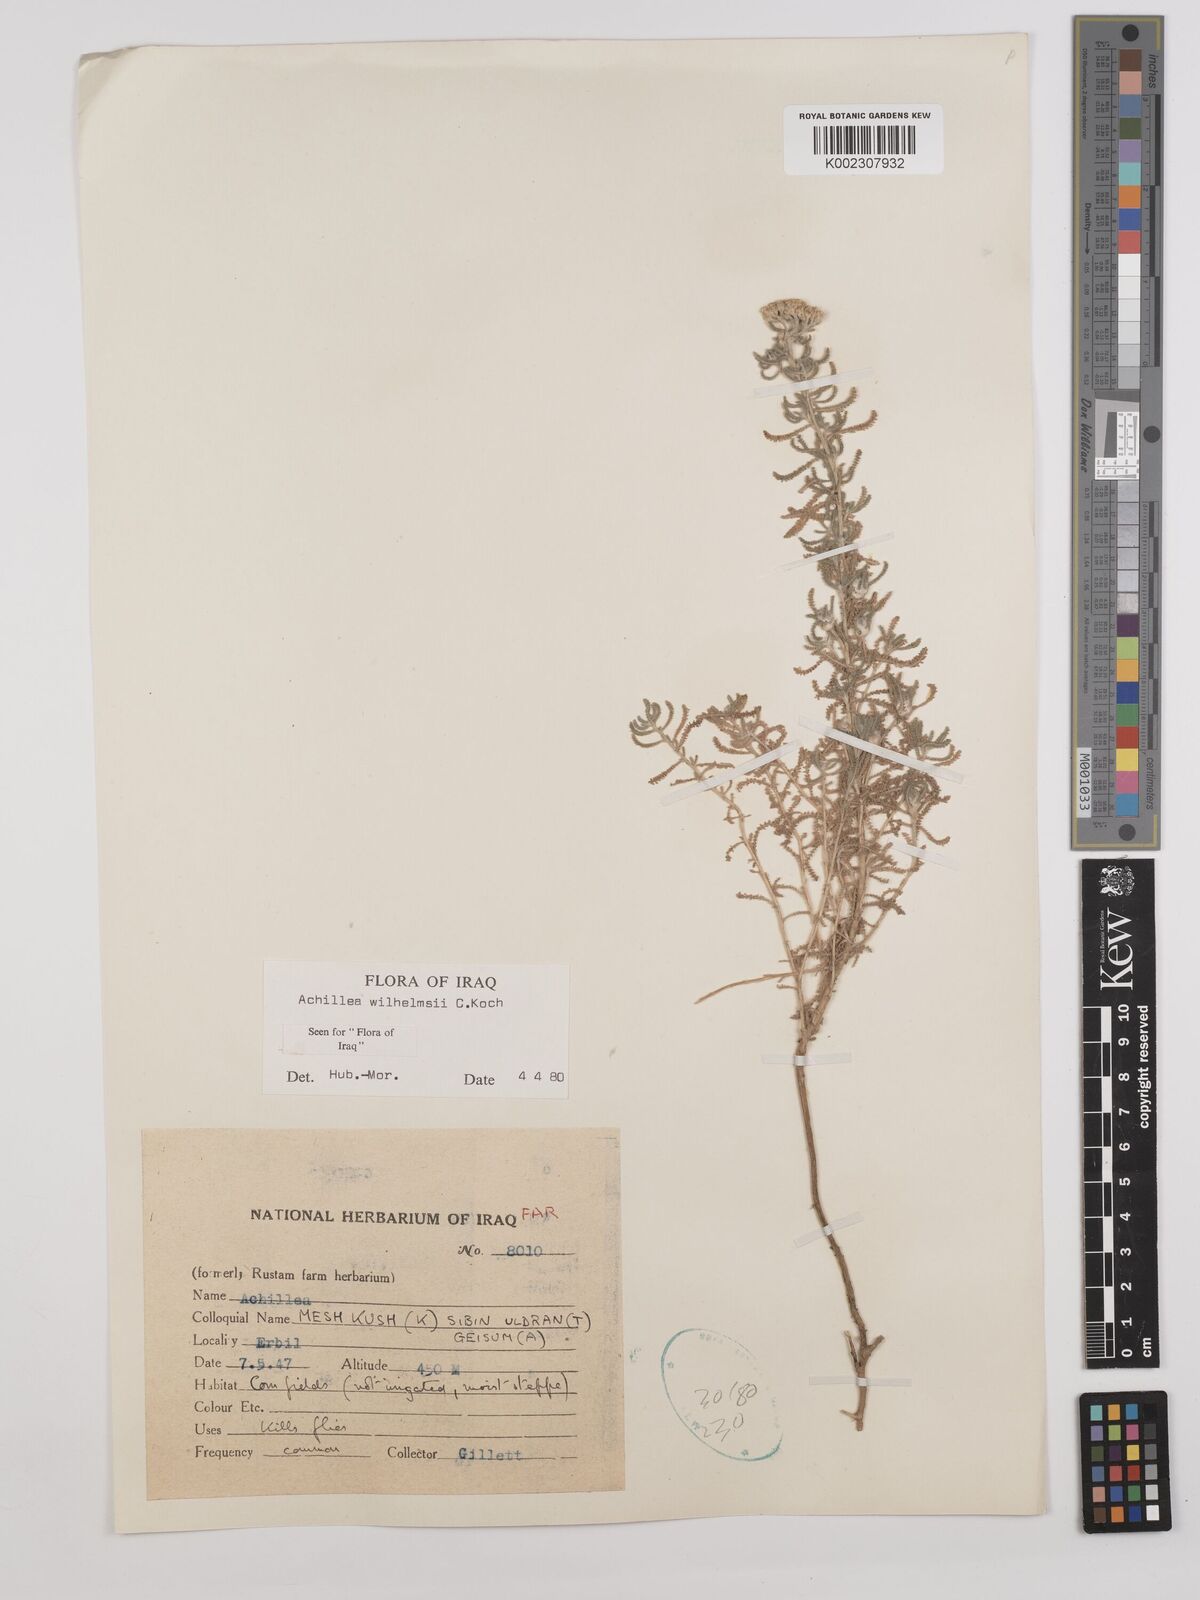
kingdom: Plantae
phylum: Tracheophyta
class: Magnoliopsida
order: Asterales
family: Asteraceae
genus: Achillea
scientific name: Achillea wilhelmsii
